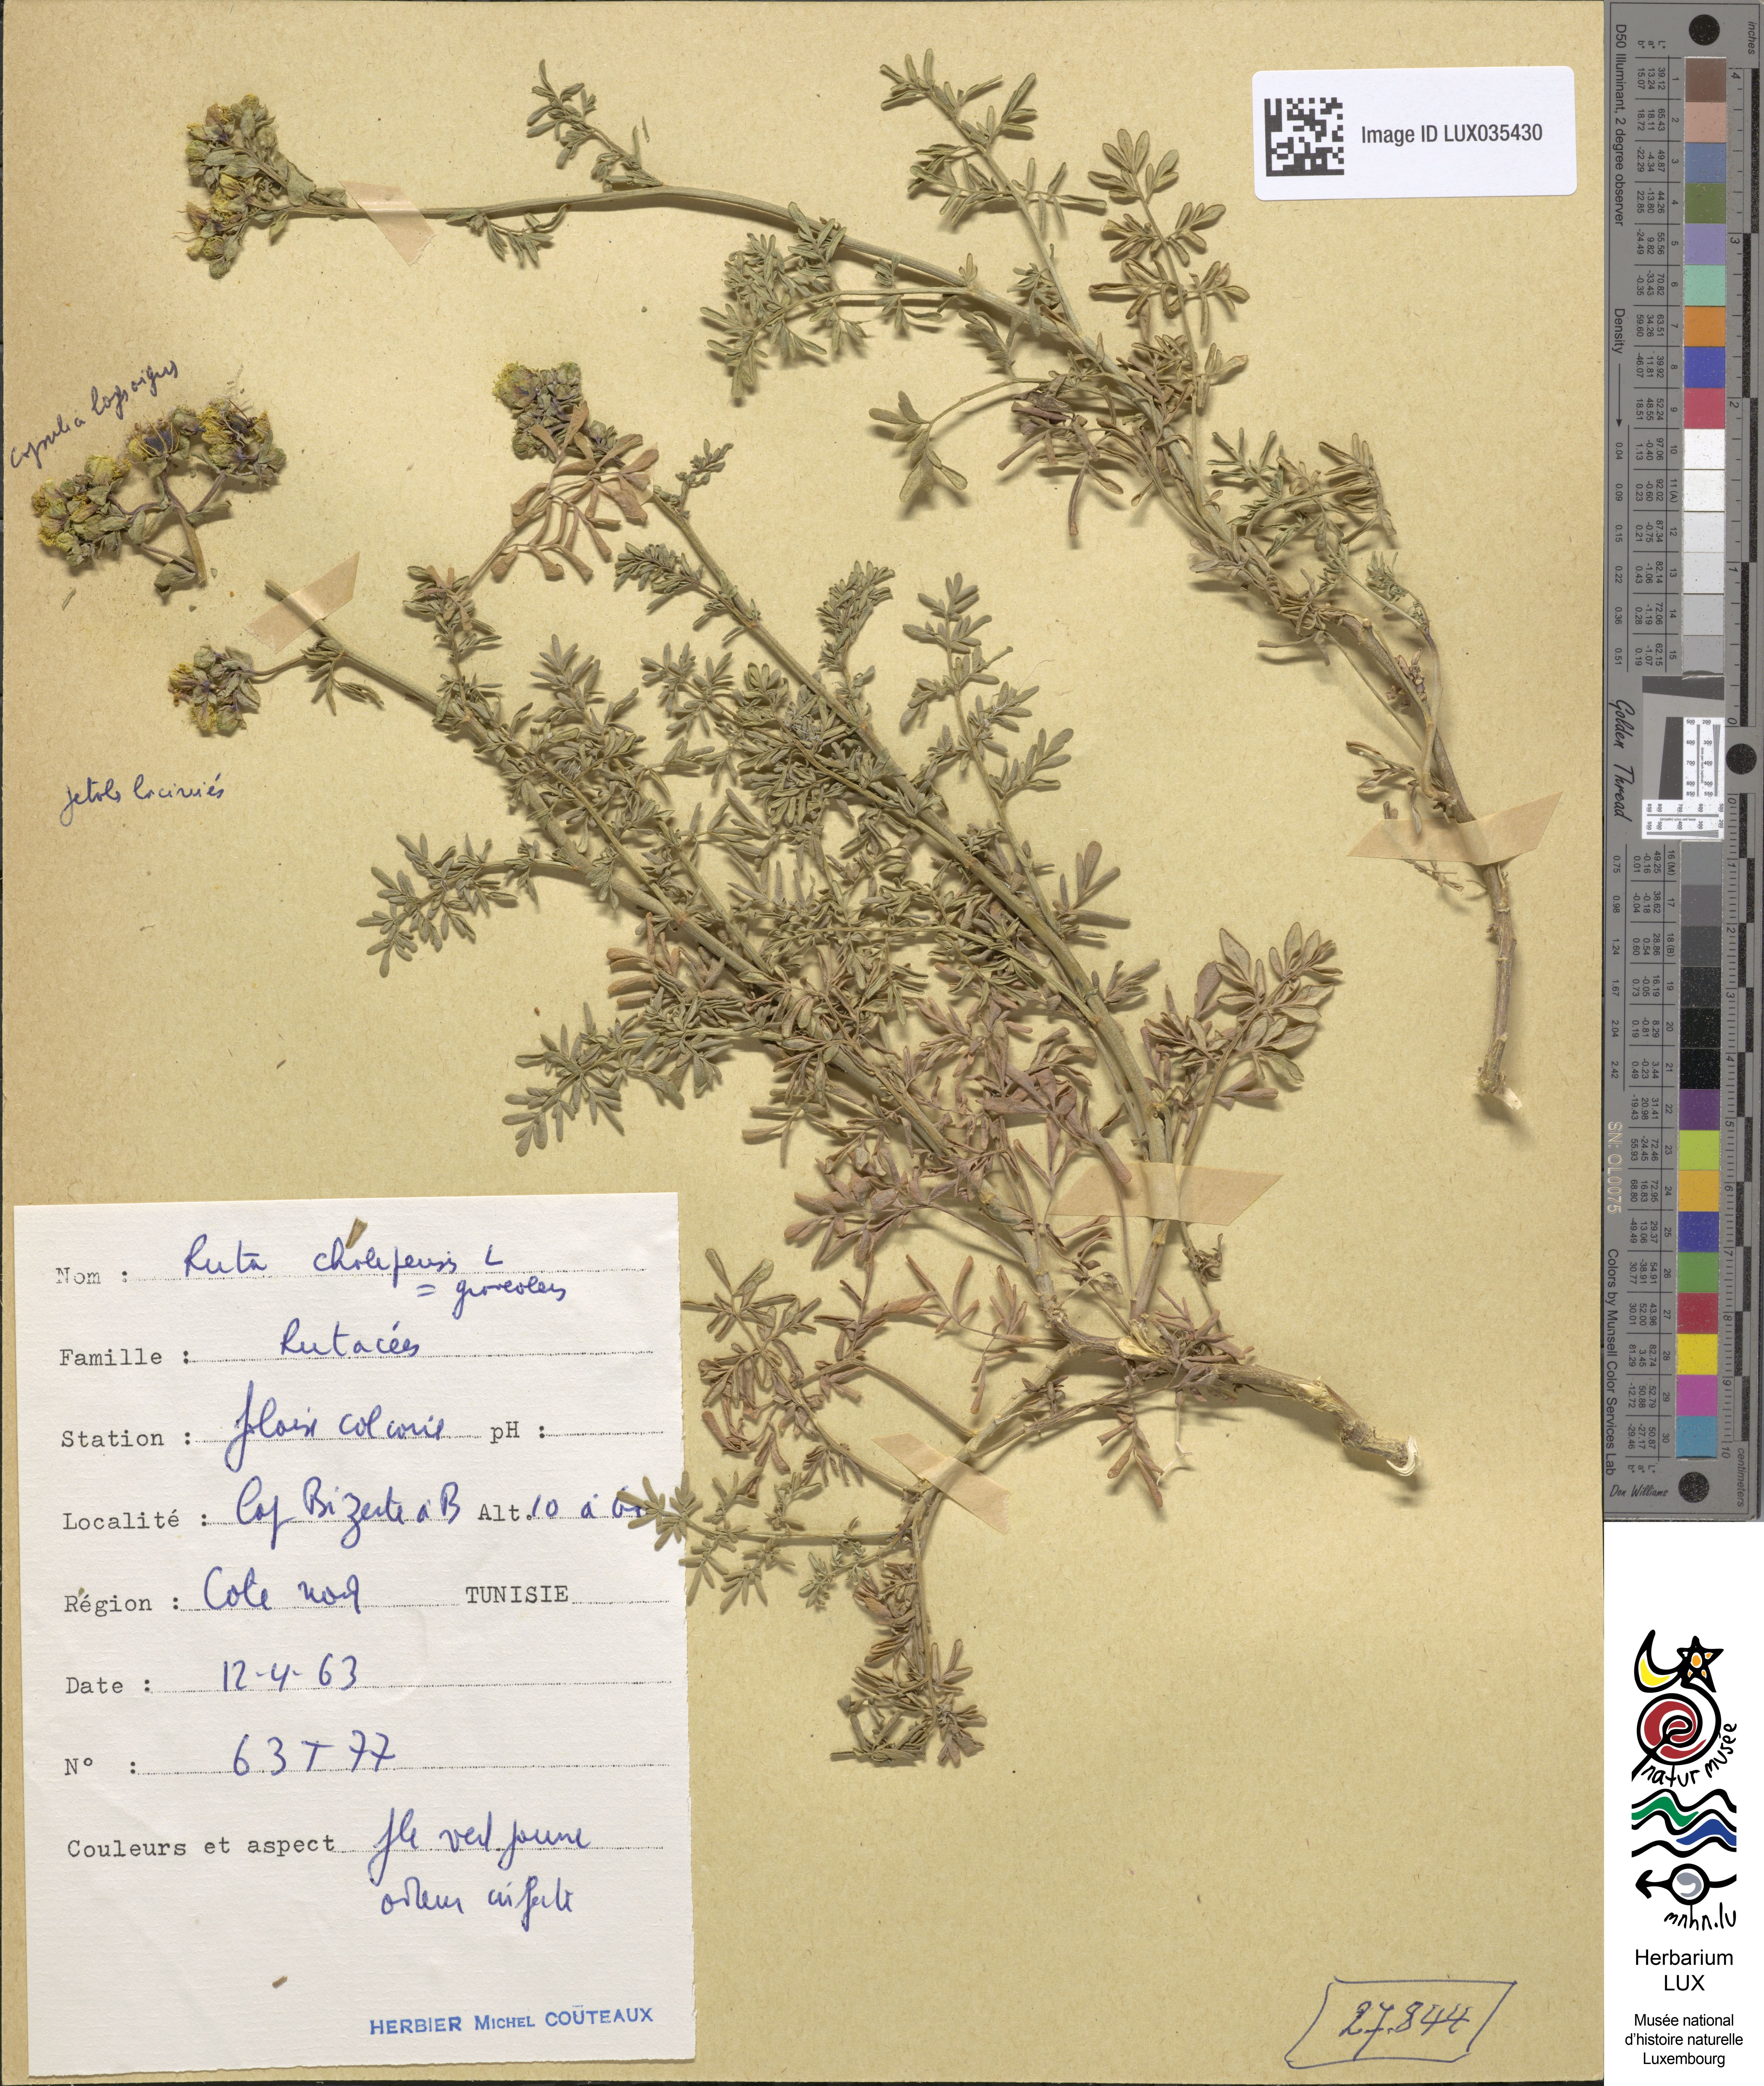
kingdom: Plantae
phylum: Tracheophyta
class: Magnoliopsida
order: Sapindales
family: Rutaceae
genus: Ruta
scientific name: Ruta graveolens
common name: Common rue
